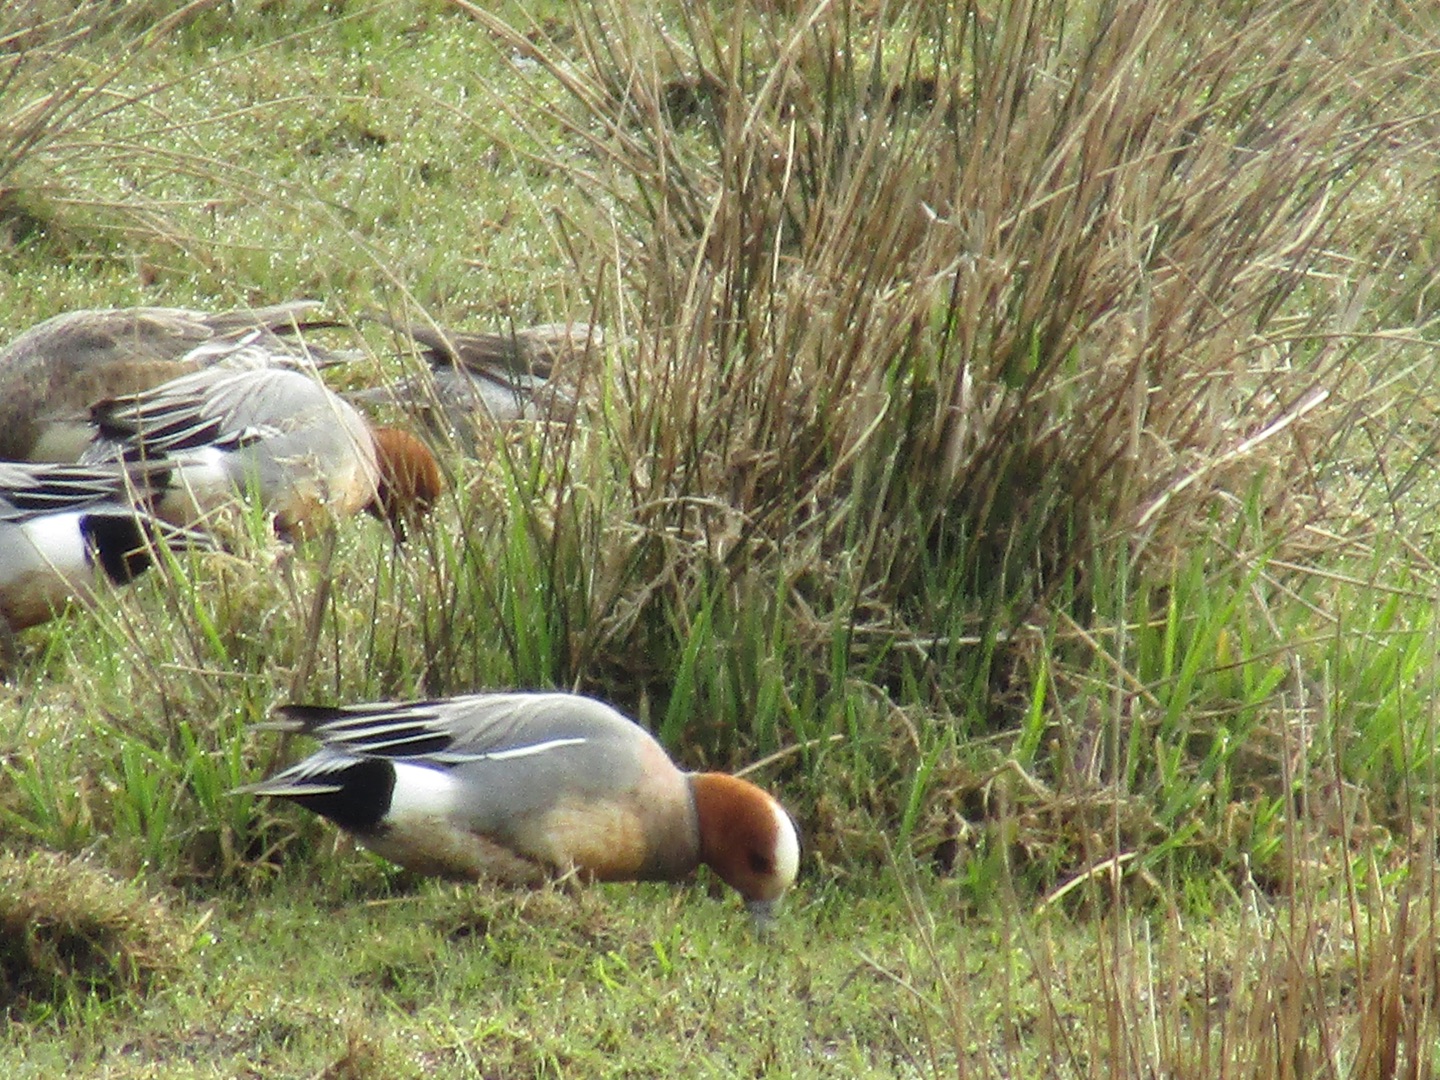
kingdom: Animalia
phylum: Chordata
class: Aves
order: Anseriformes
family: Anatidae
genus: Mareca
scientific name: Mareca penelope
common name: Pibeand
